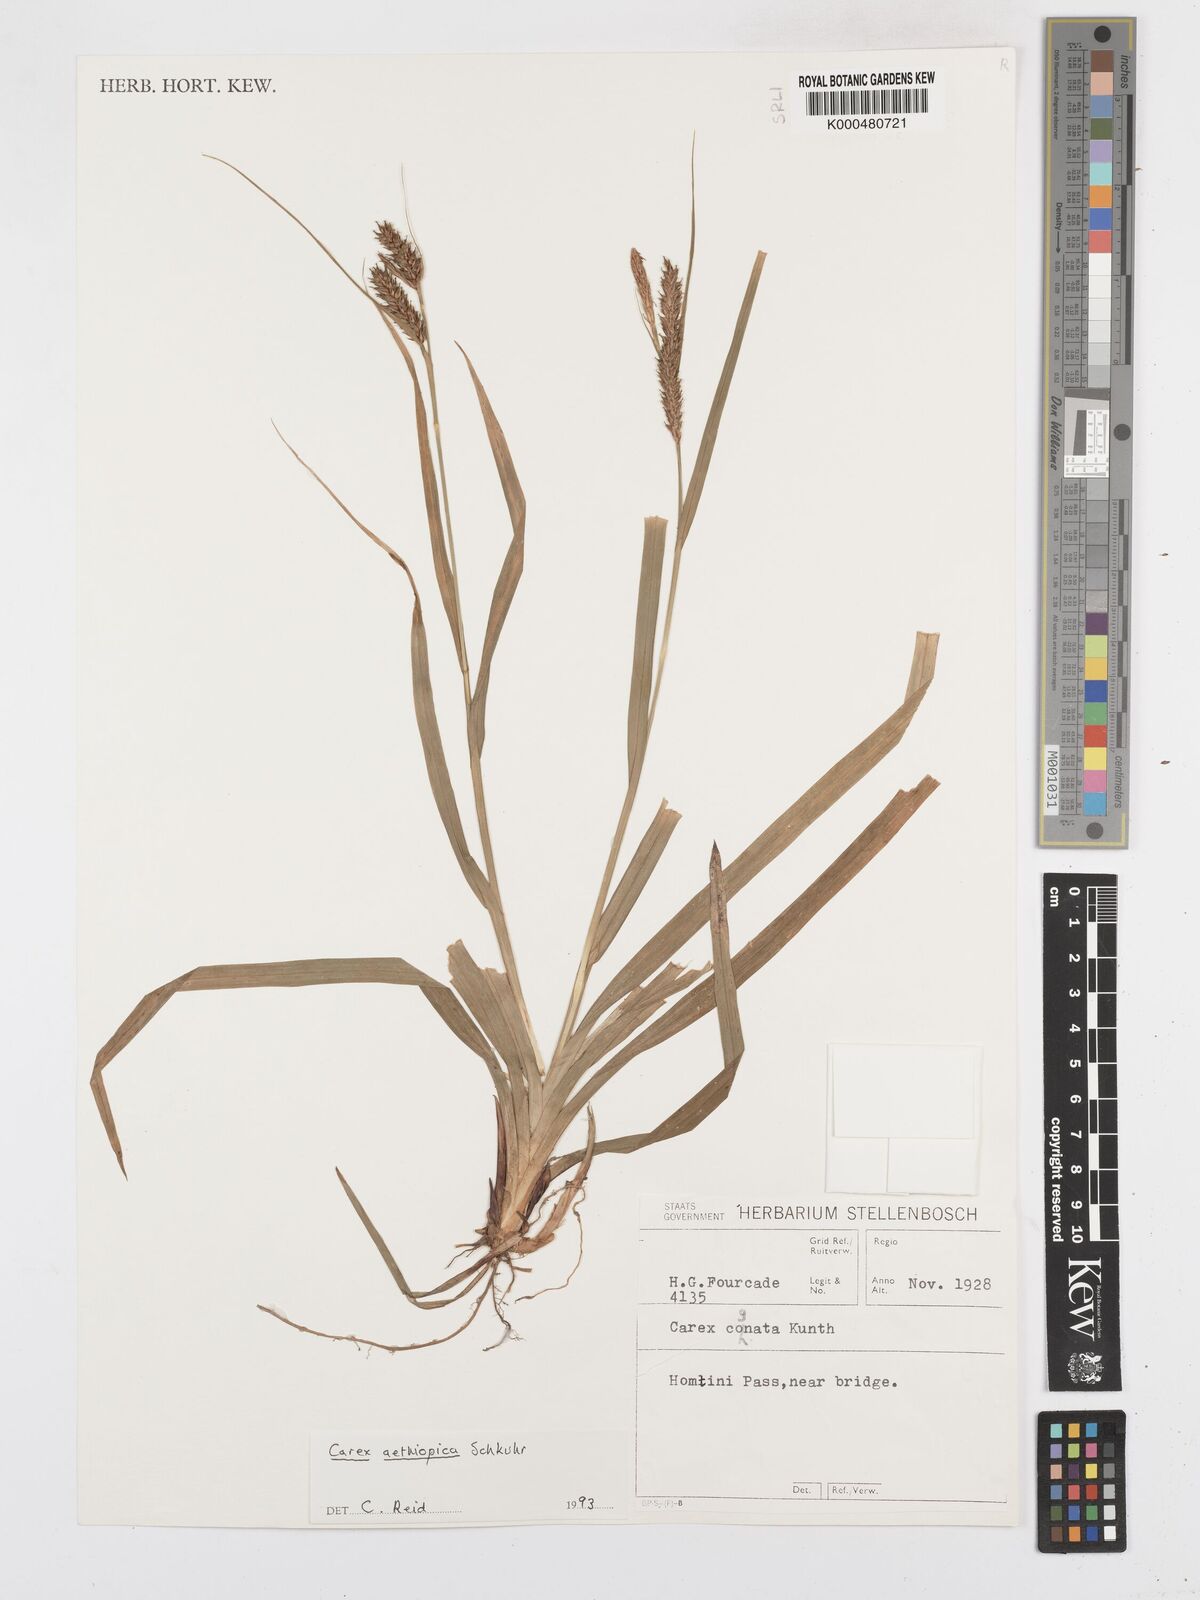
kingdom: Plantae
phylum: Tracheophyta
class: Liliopsida
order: Poales
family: Cyperaceae
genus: Carex
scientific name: Carex aethiopica
